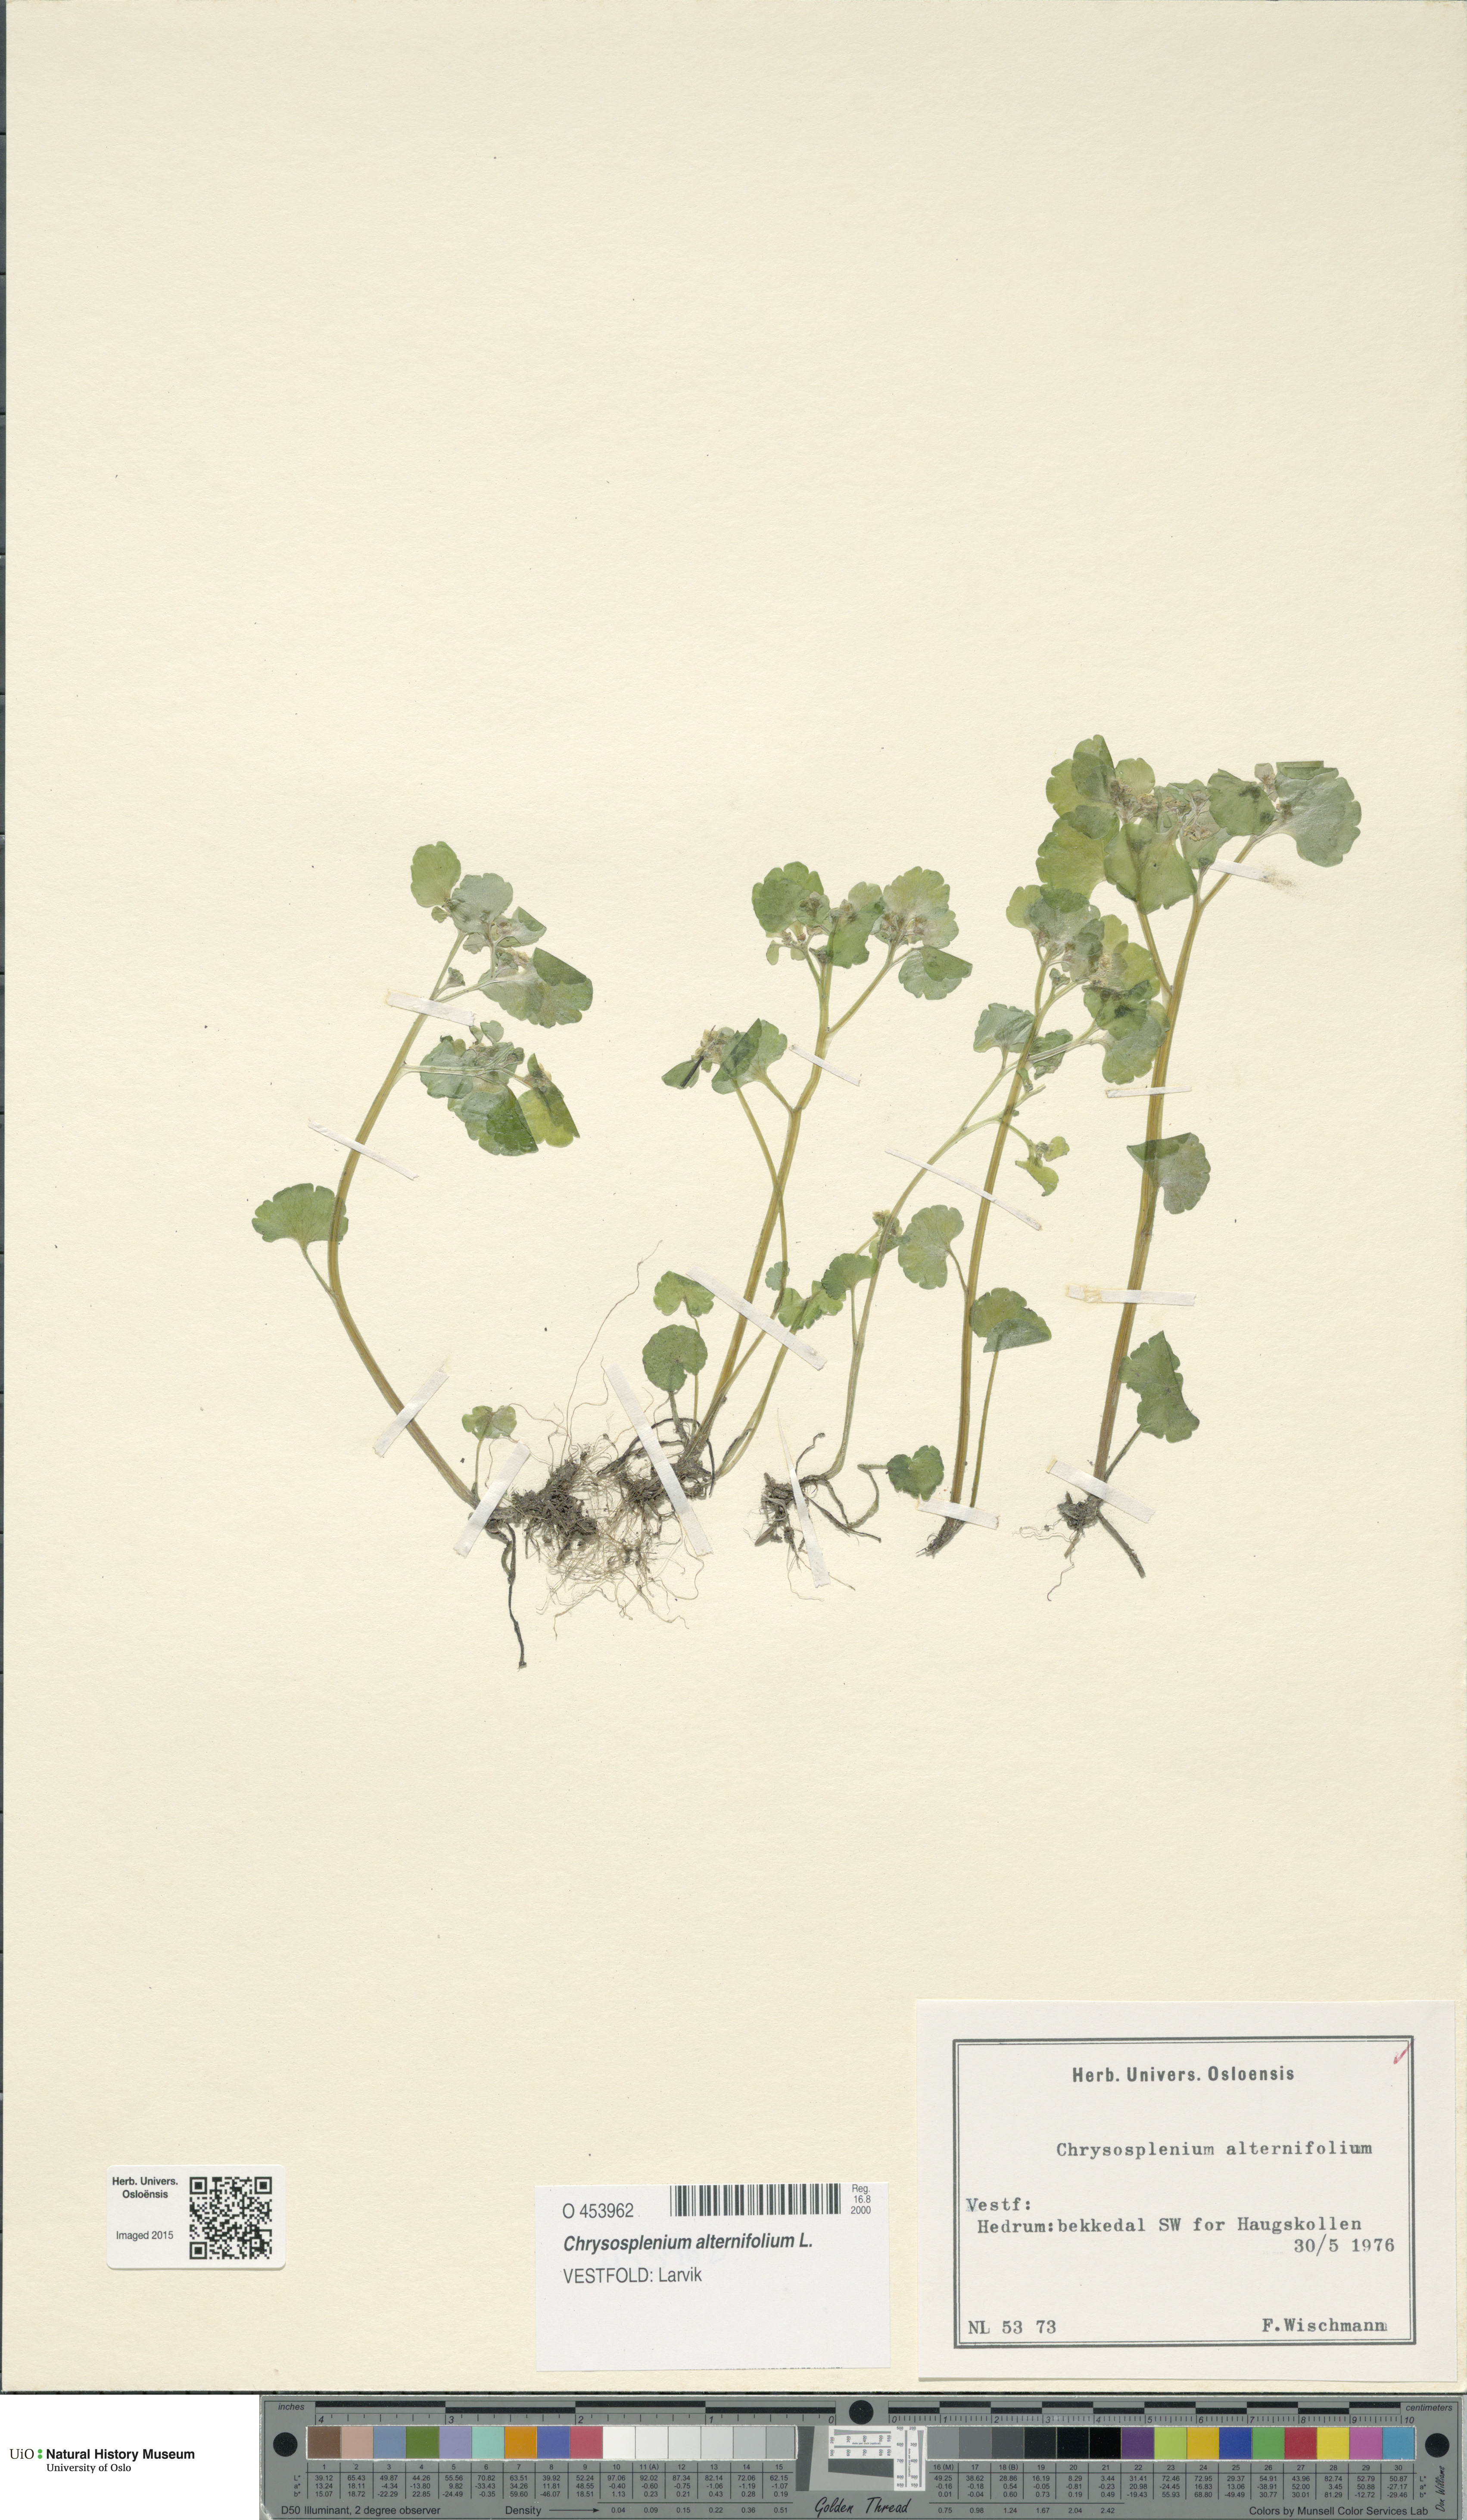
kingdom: Plantae
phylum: Tracheophyta
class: Magnoliopsida
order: Saxifragales
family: Saxifragaceae
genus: Chrysosplenium
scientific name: Chrysosplenium alternifolium
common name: Alternate-leaved golden-saxifrage
